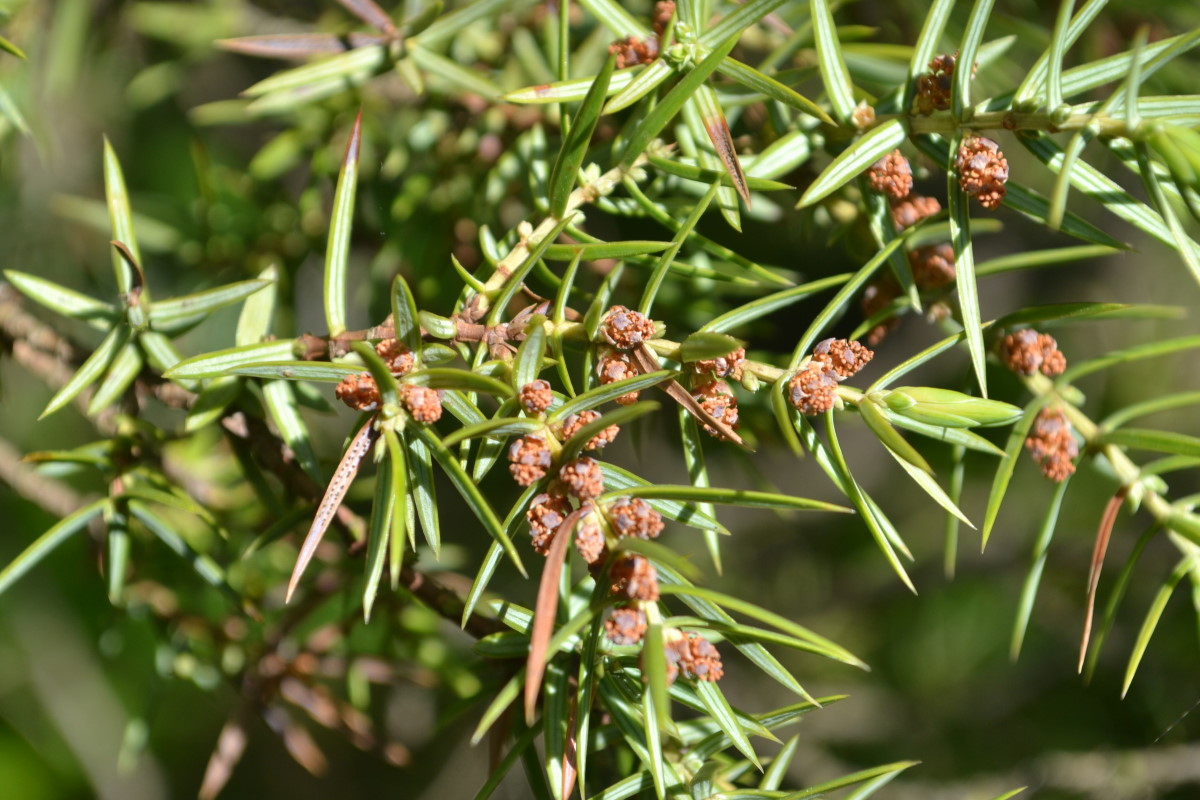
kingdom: Plantae
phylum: Tracheophyta
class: Pinopsida
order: Pinales
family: Cupressaceae
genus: Juniperus
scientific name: Juniperus
